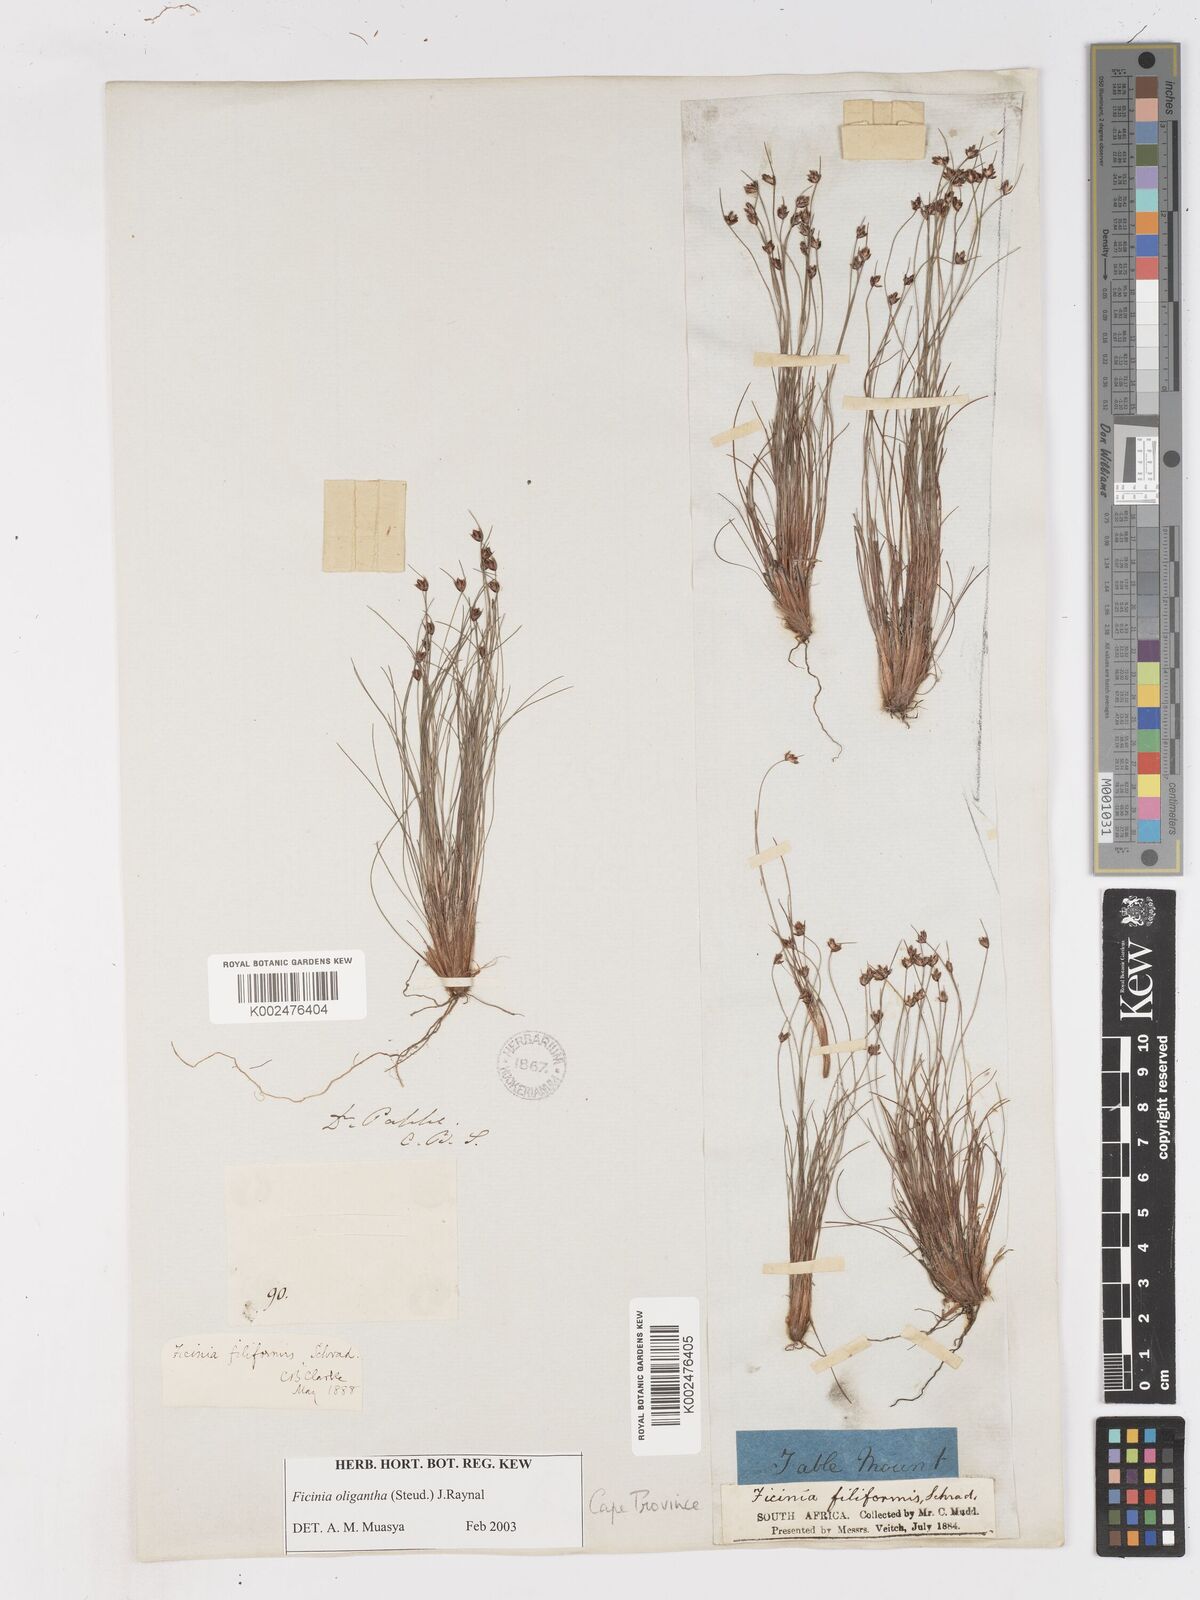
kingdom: Plantae
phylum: Tracheophyta
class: Liliopsida
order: Poales
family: Cyperaceae
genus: Ficinia
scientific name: Ficinia oligantha
